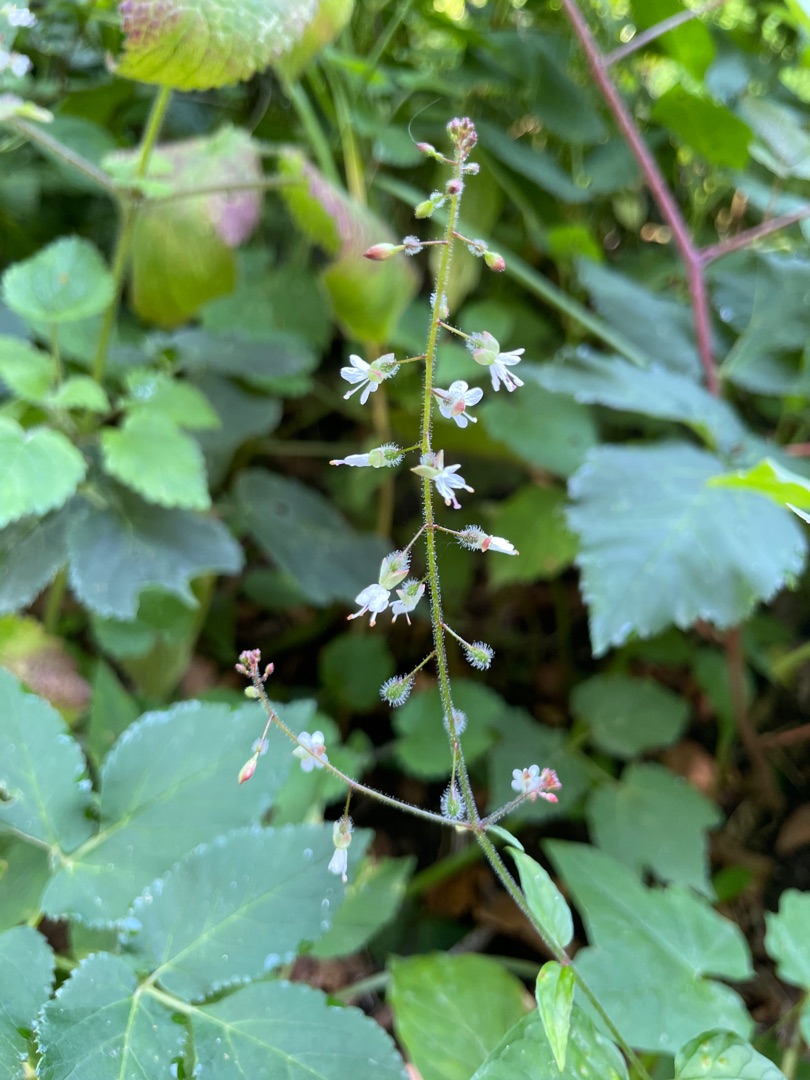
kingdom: Plantae
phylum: Tracheophyta
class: Magnoliopsida
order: Myrtales
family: Onagraceae
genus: Circaea
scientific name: Circaea lutetiana
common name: Dunet steffensurt
